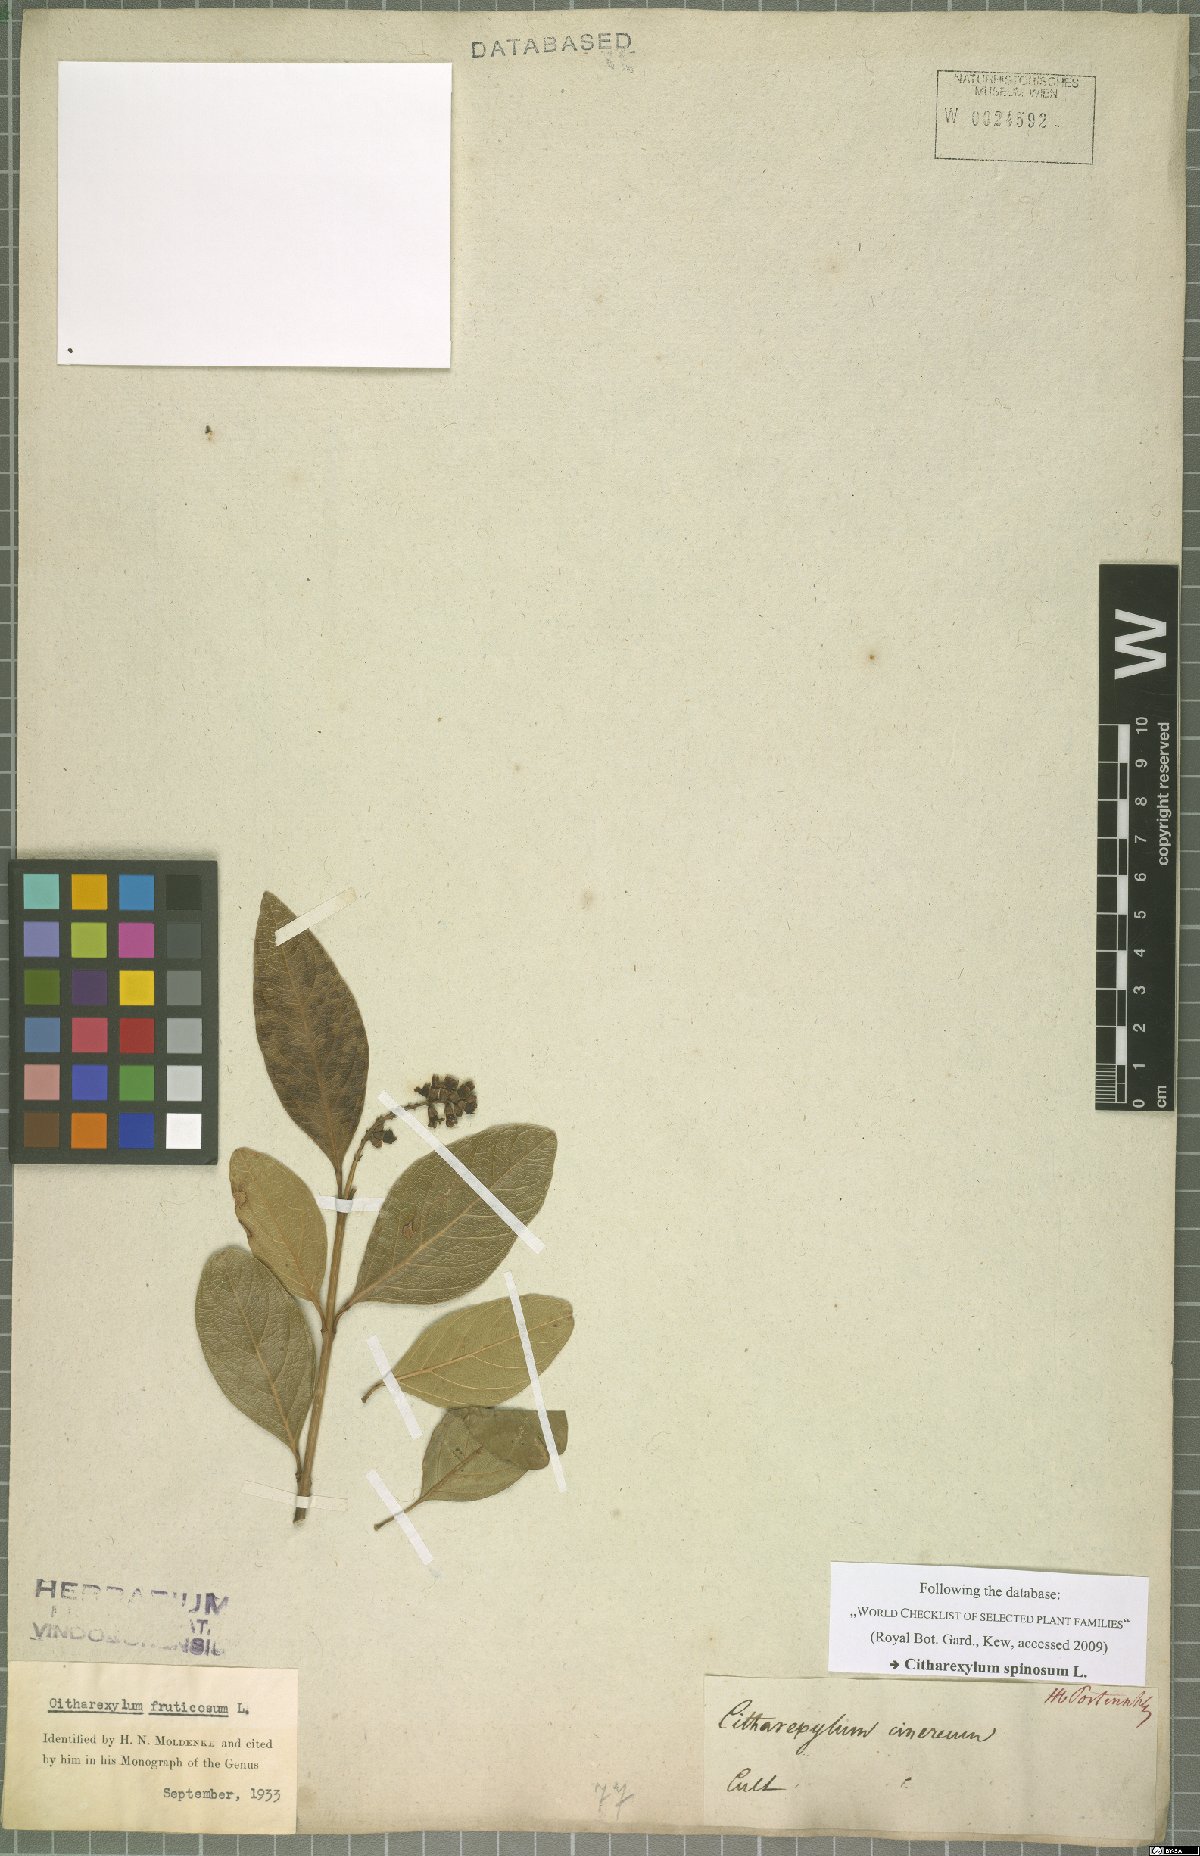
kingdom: Plantae
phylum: Tracheophyta
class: Magnoliopsida
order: Lamiales
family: Verbenaceae
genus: Citharexylum
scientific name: Citharexylum spinosum
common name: Fiddlewood
